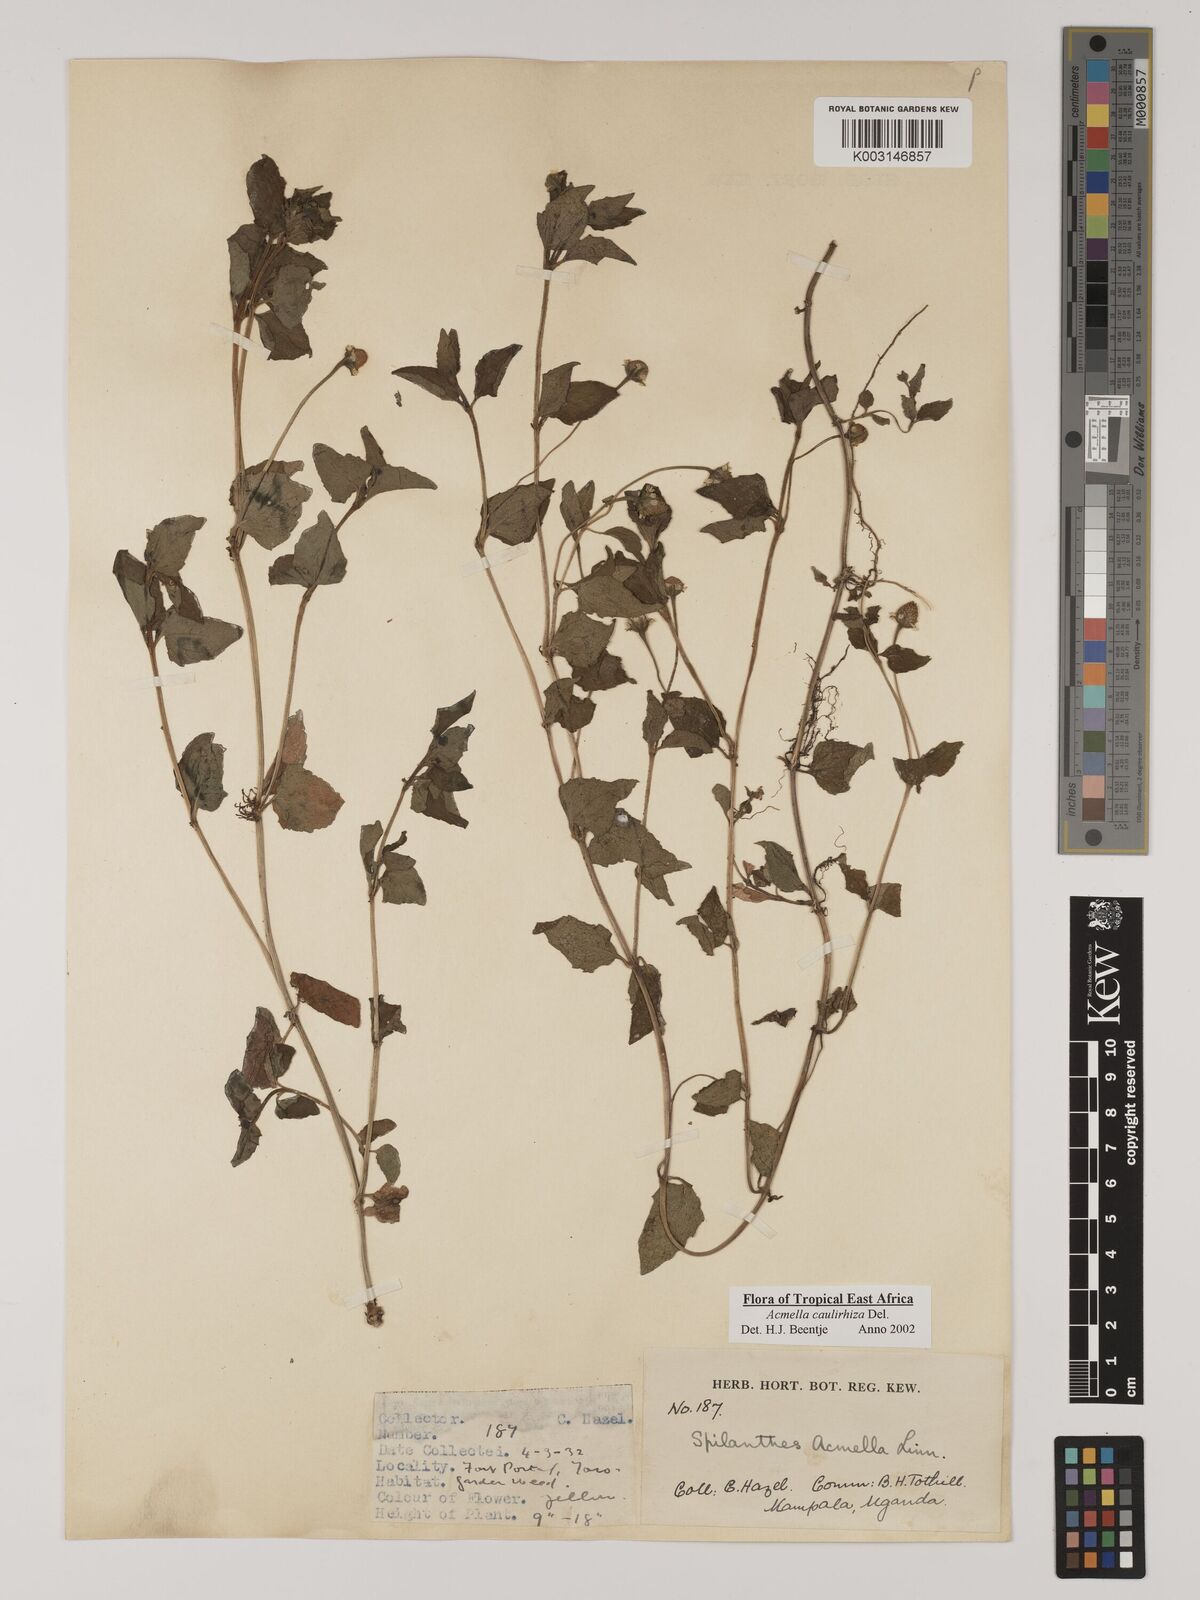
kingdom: Plantae
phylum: Tracheophyta
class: Magnoliopsida
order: Asterales
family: Asteraceae
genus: Acmella
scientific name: Acmella caulirhiza
